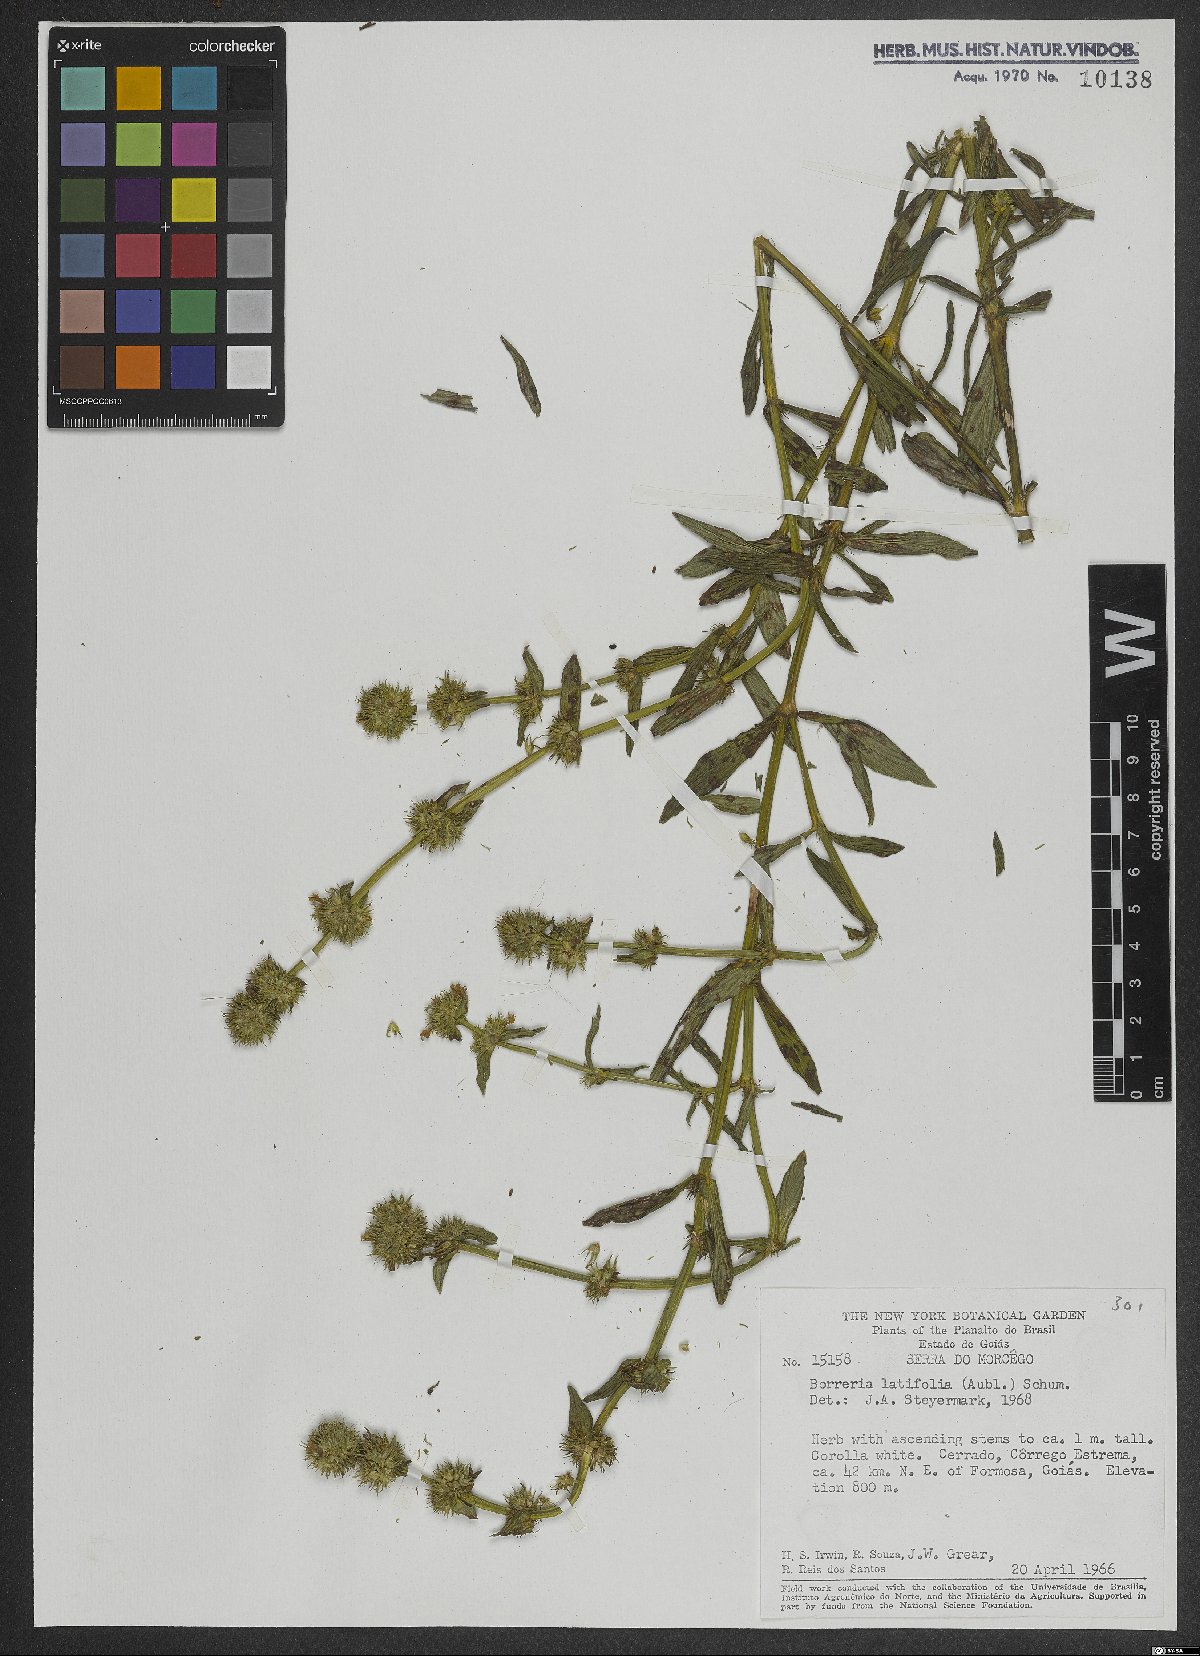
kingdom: Plantae
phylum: Tracheophyta
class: Magnoliopsida
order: Gentianales
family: Rubiaceae
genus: Spermacoce
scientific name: Spermacoce latifolia
